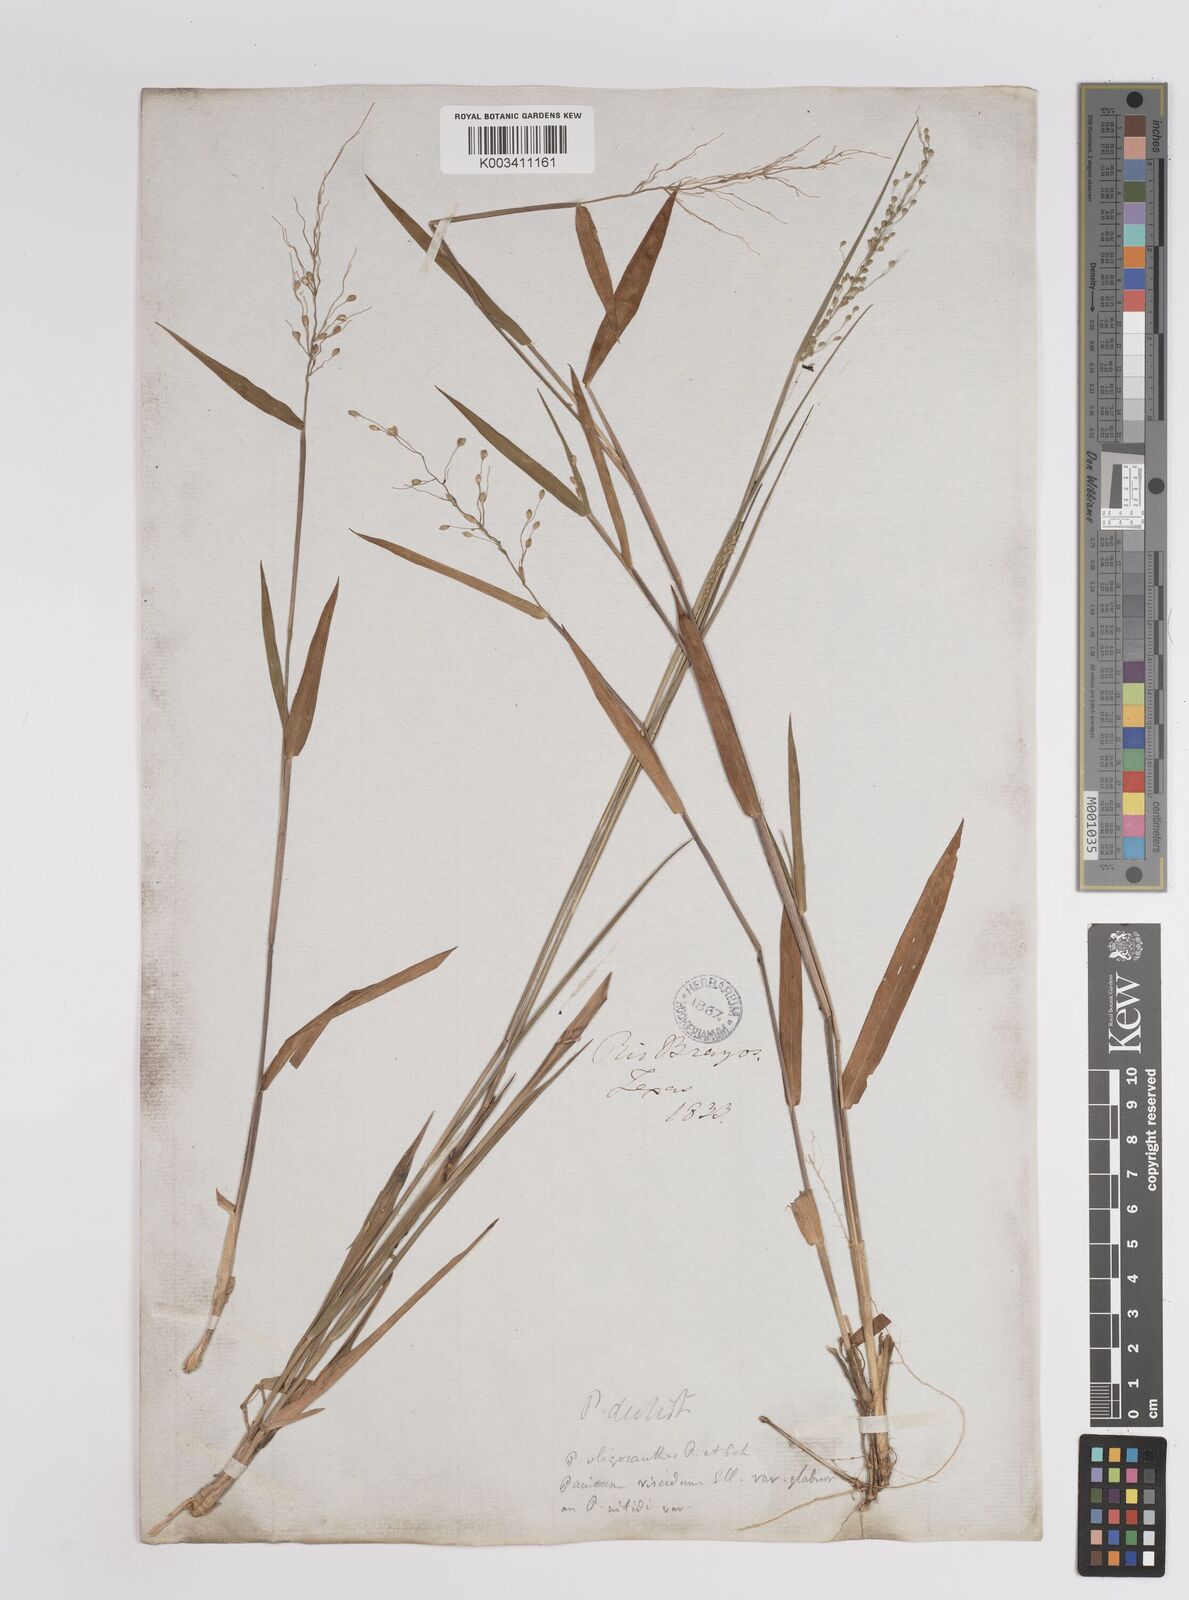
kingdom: Plantae
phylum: Tracheophyta
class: Liliopsida
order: Poales
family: Poaceae
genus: Dichanthelium
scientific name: Dichanthelium oligosanthes
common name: Few-anther obscuregrass
